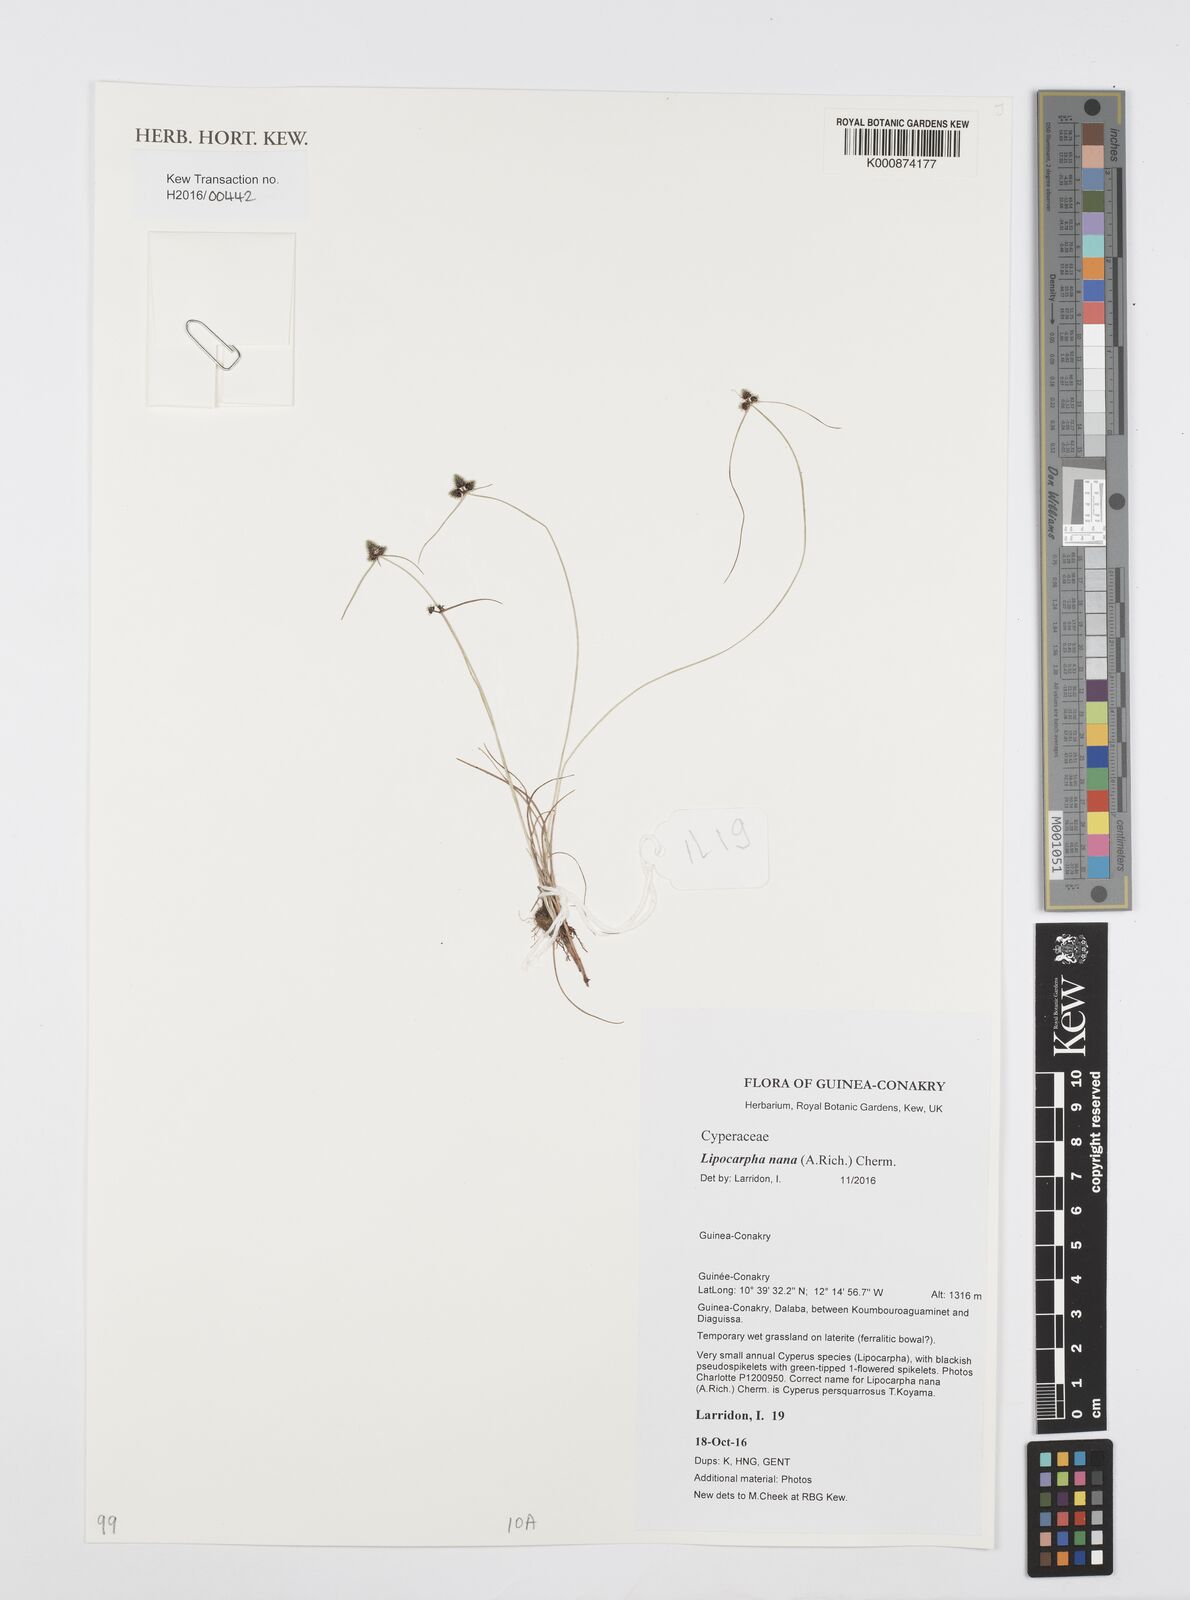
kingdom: Plantae
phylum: Tracheophyta
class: Liliopsida
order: Poales
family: Cyperaceae
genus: Cyperus
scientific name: Cyperus persquarrosus
